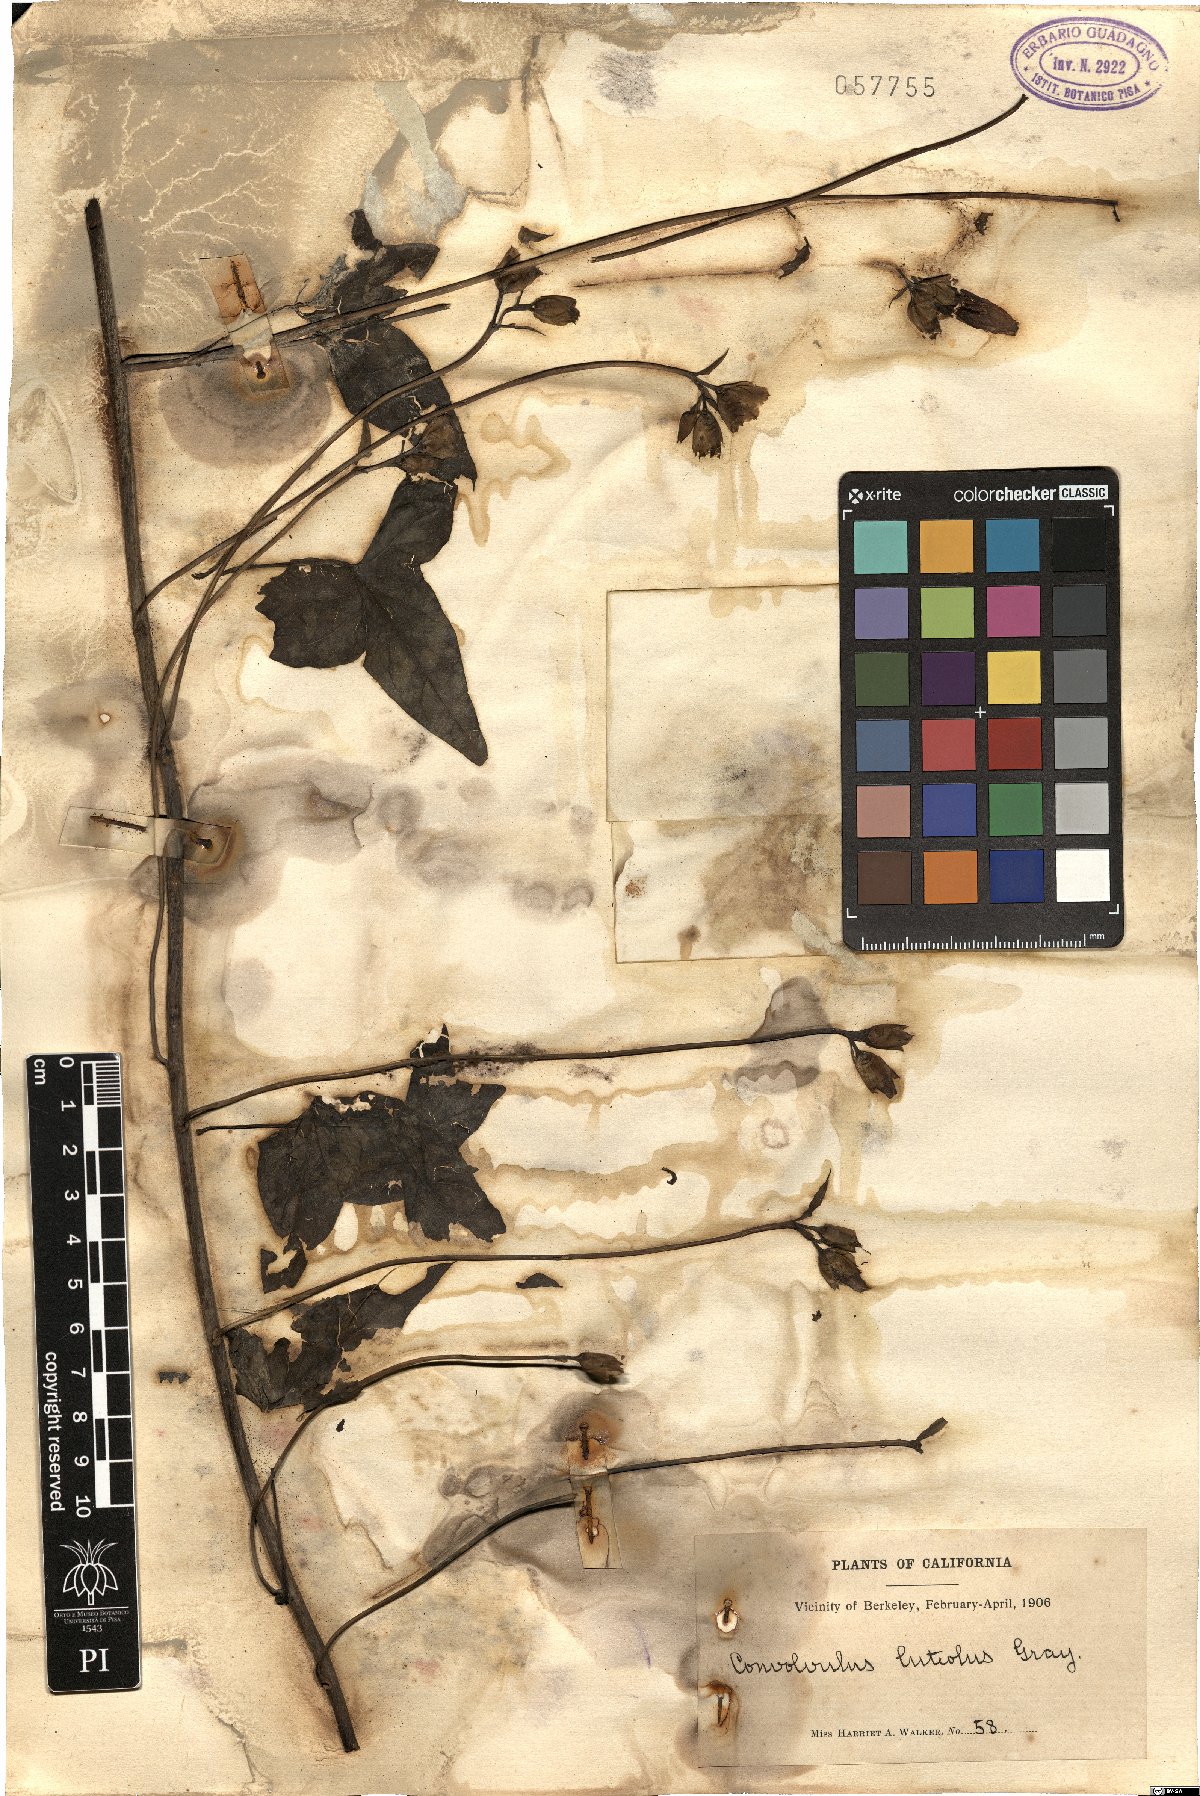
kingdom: Plantae
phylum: Tracheophyta
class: Magnoliopsida
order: Solanales
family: Convolvulaceae
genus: Calystegia
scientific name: Calystegia
